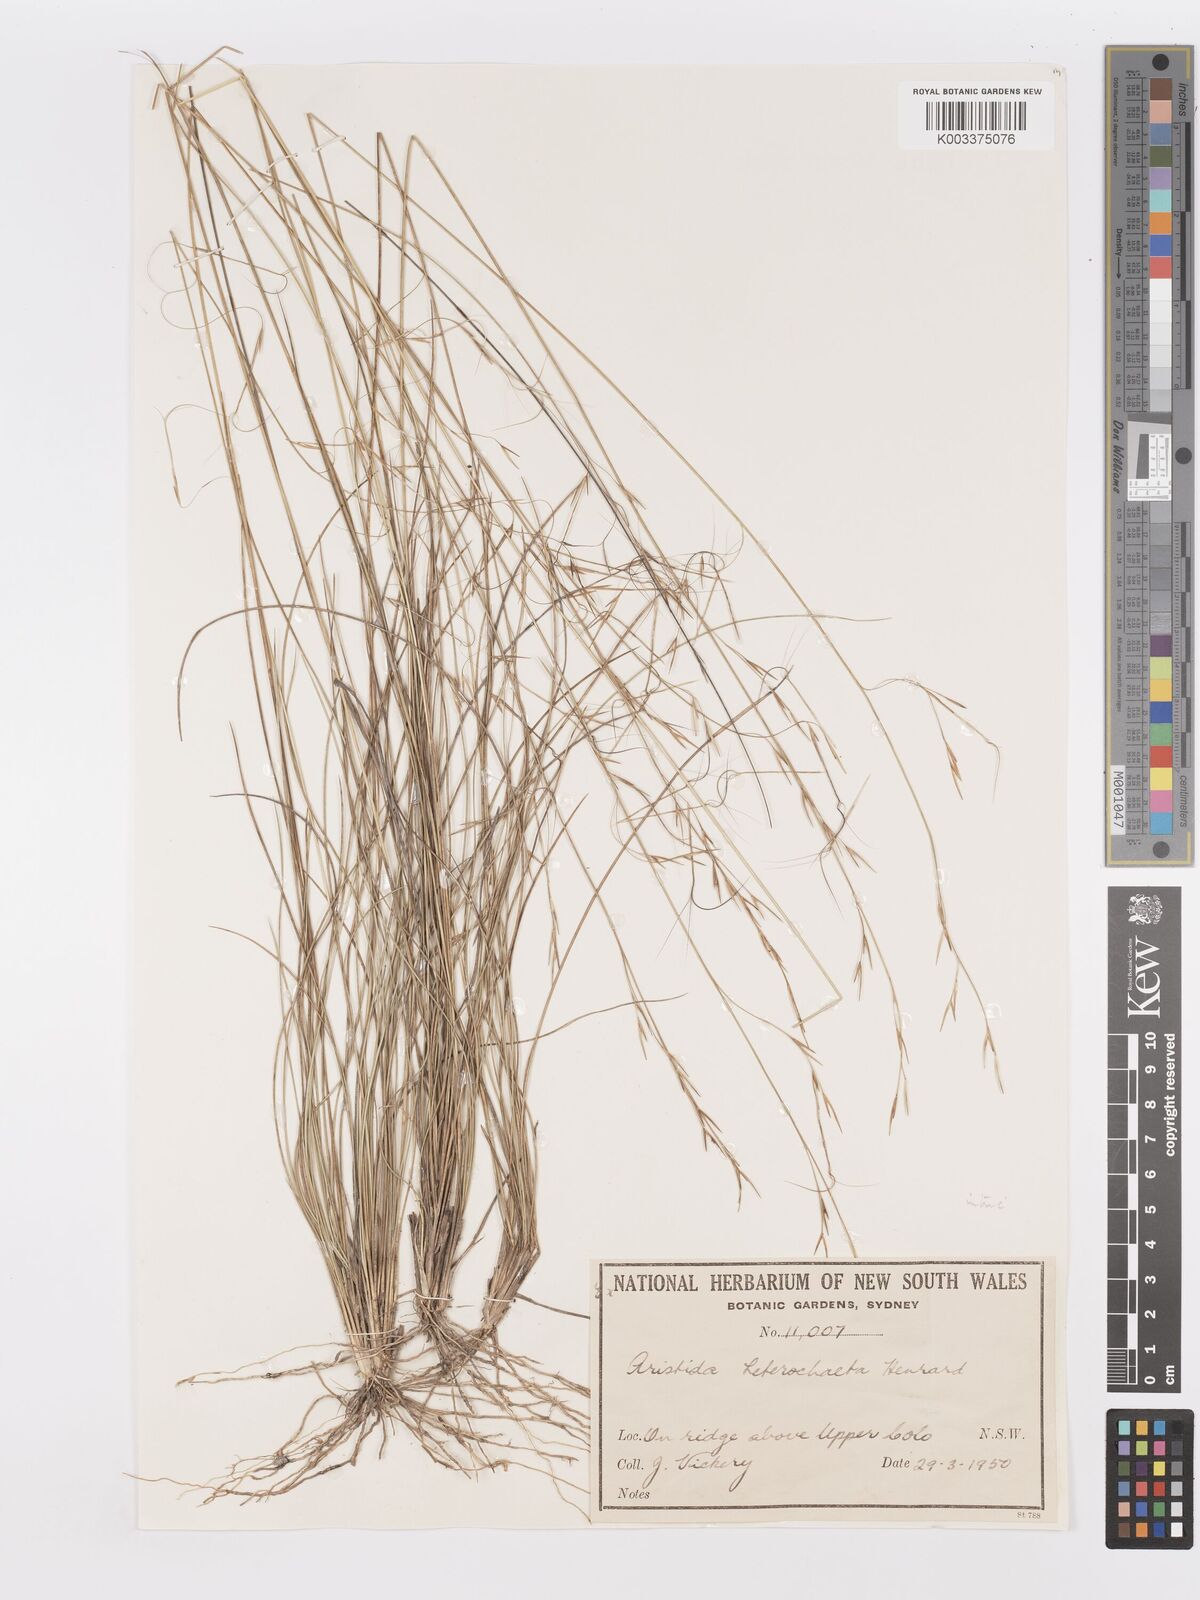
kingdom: Plantae
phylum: Tracheophyta
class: Liliopsida
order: Poales
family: Poaceae
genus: Aristida
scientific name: Aristida warburgii
